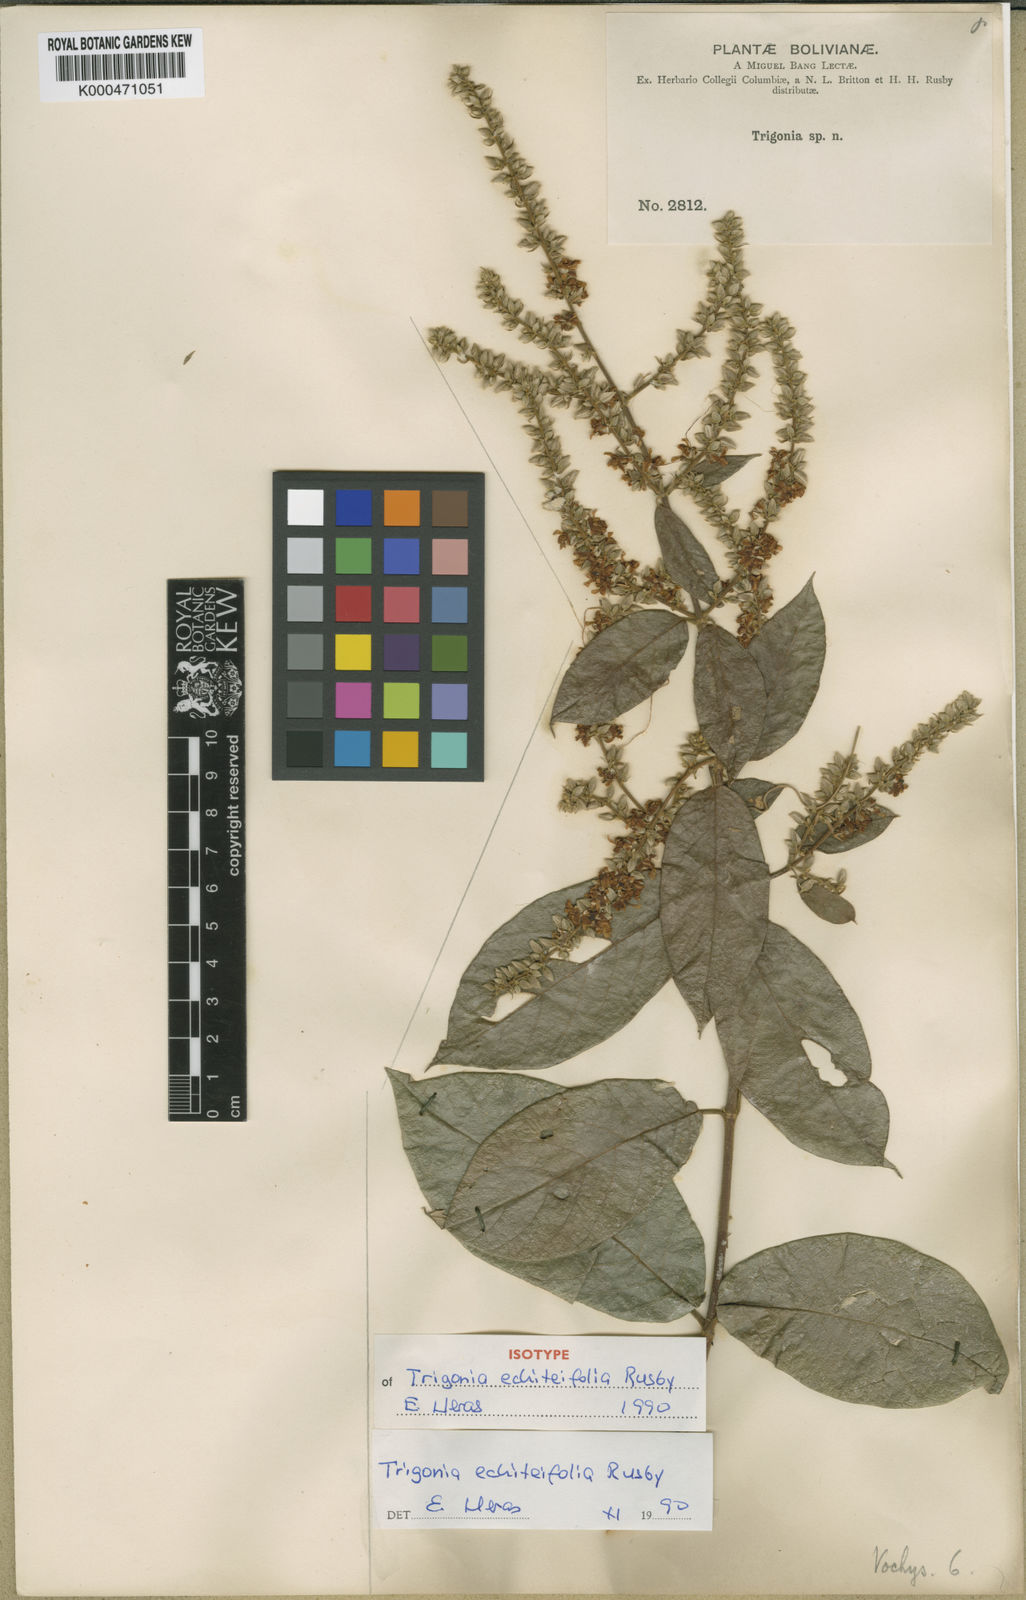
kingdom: Plantae
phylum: Tracheophyta
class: Magnoliopsida
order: Malpighiales
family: Trigoniaceae
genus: Trigonia
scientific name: Trigonia floccosa
